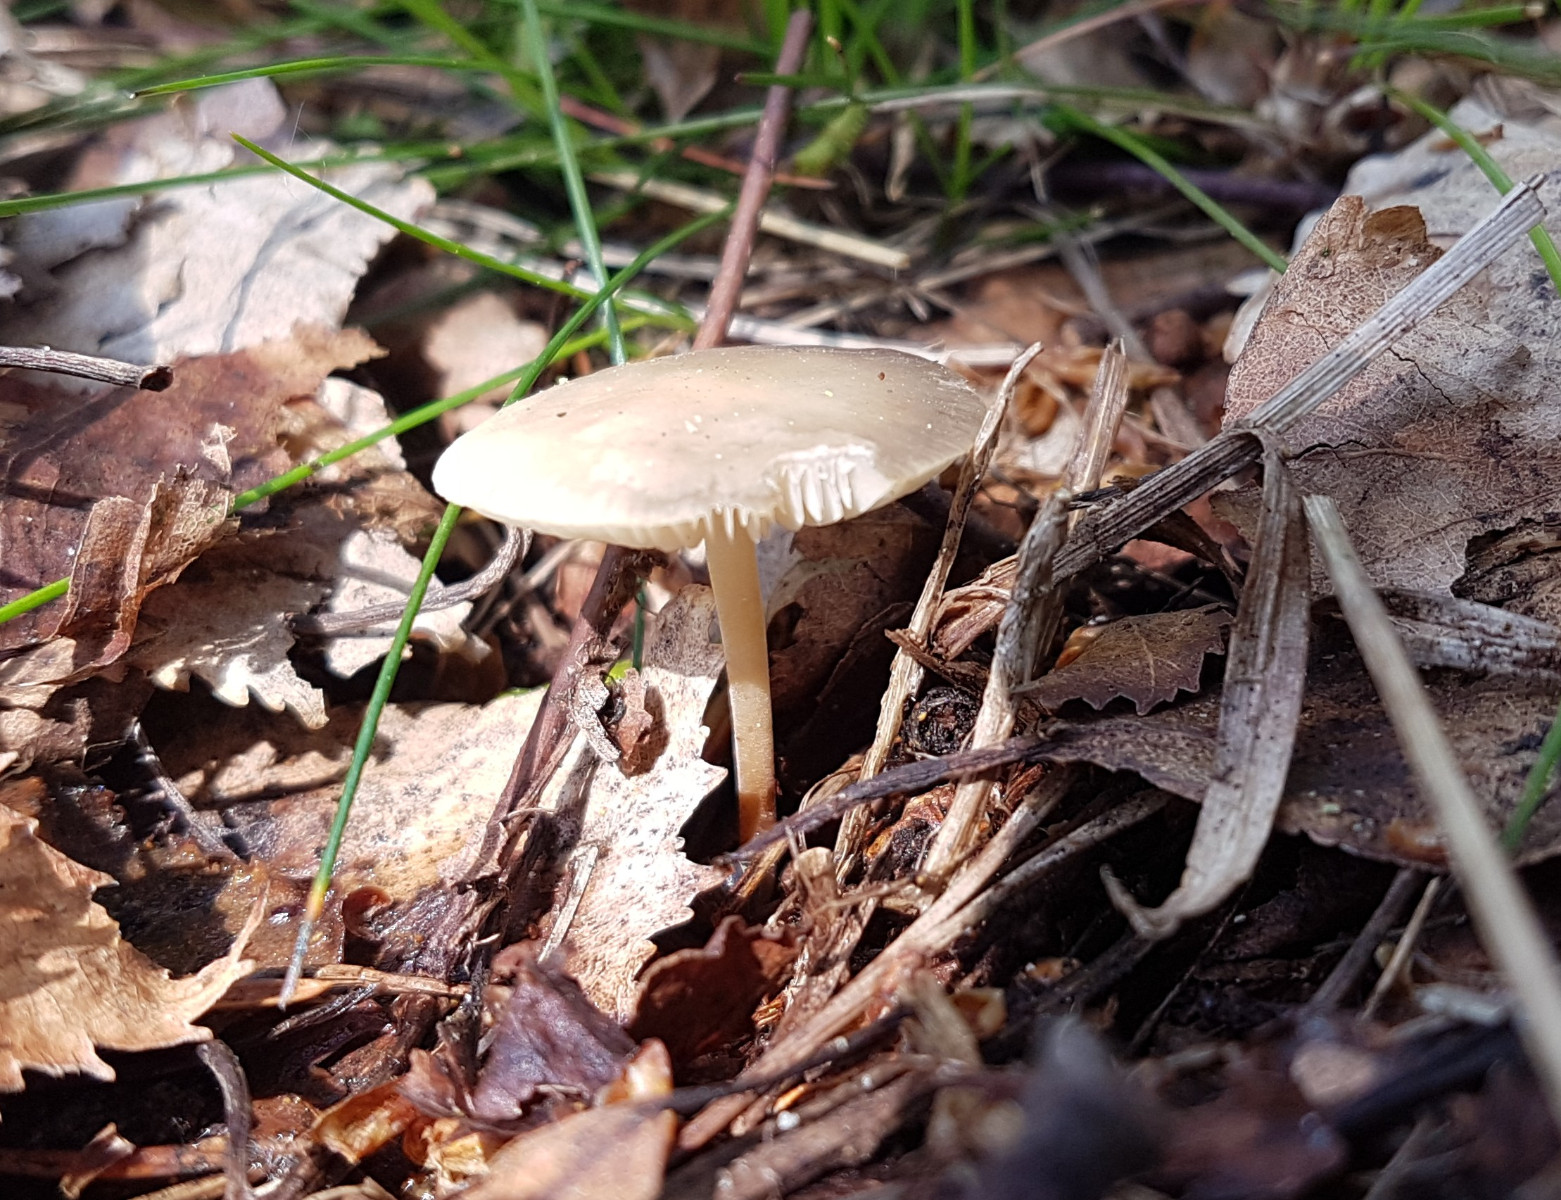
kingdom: Fungi
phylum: Basidiomycota
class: Agaricomycetes
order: Agaricales
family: Physalacriaceae
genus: Strobilurus
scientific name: Strobilurus tenacellus
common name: sommer-koglehat
